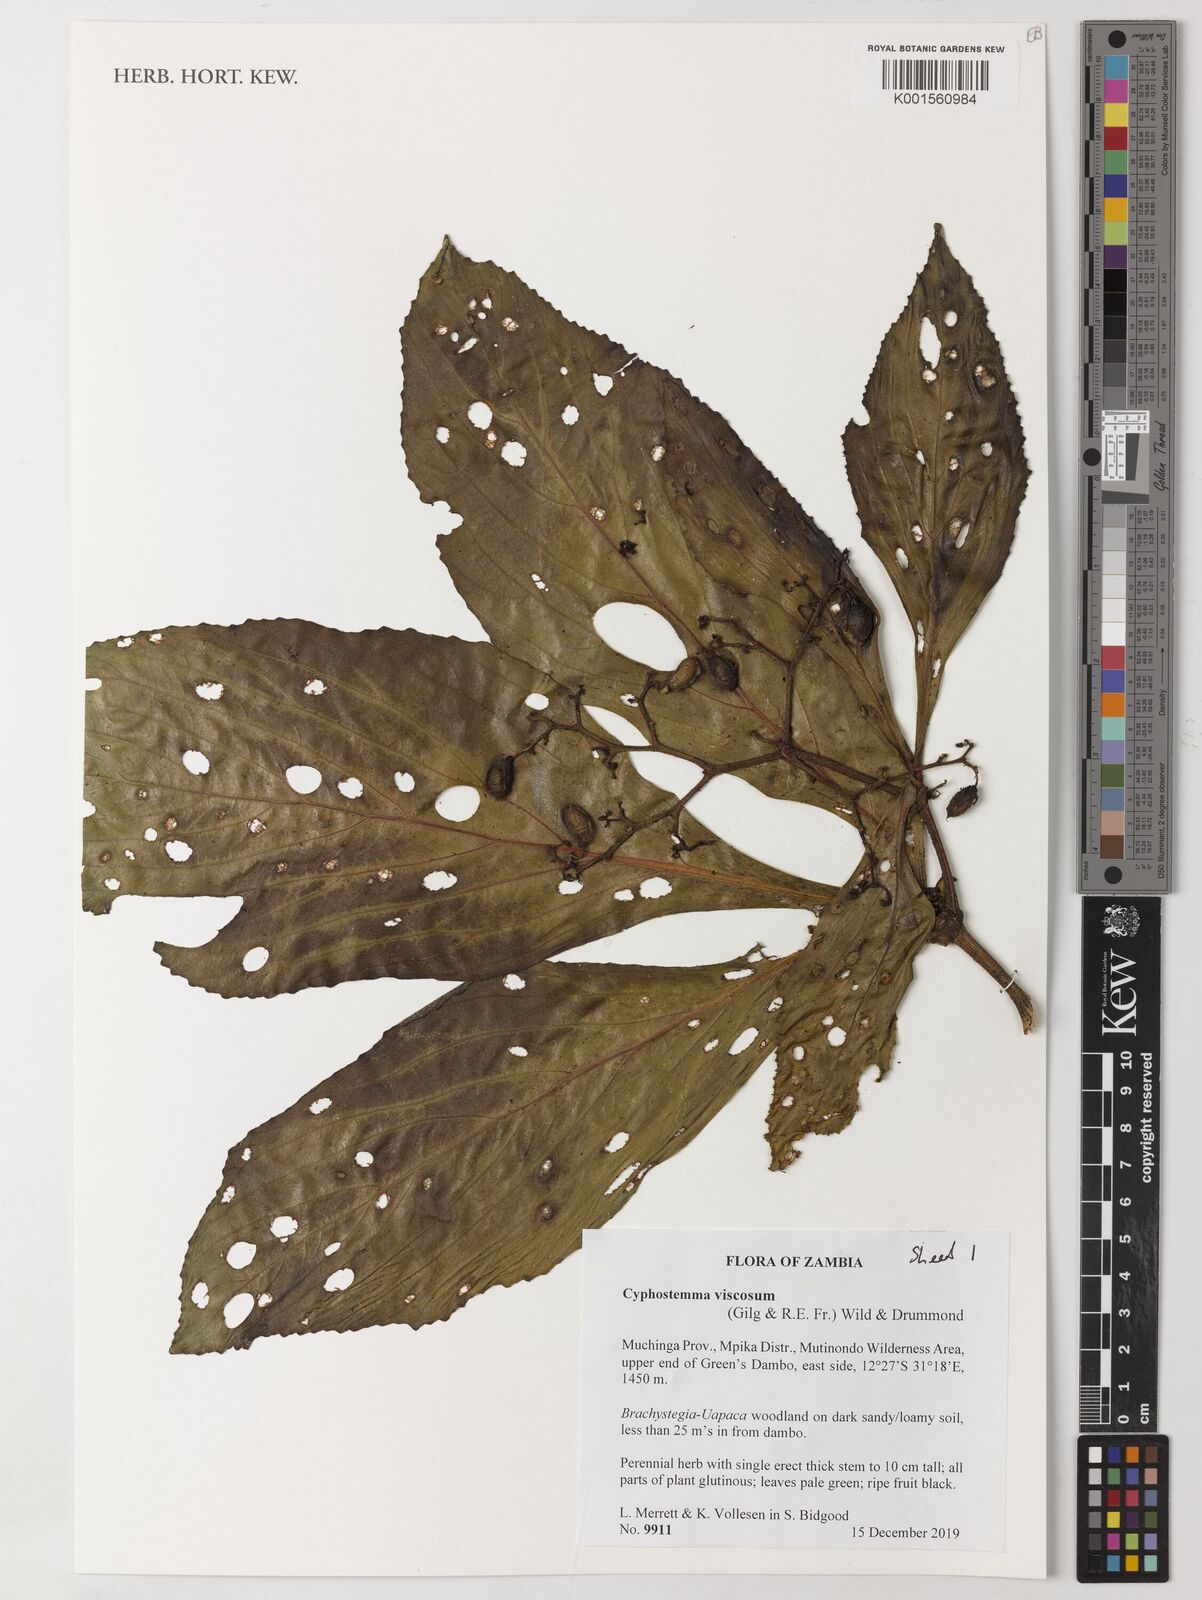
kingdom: Plantae
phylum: Tracheophyta
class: Magnoliopsida
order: Vitales
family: Vitaceae
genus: Cyphostemma
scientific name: Cyphostemma viscosum
